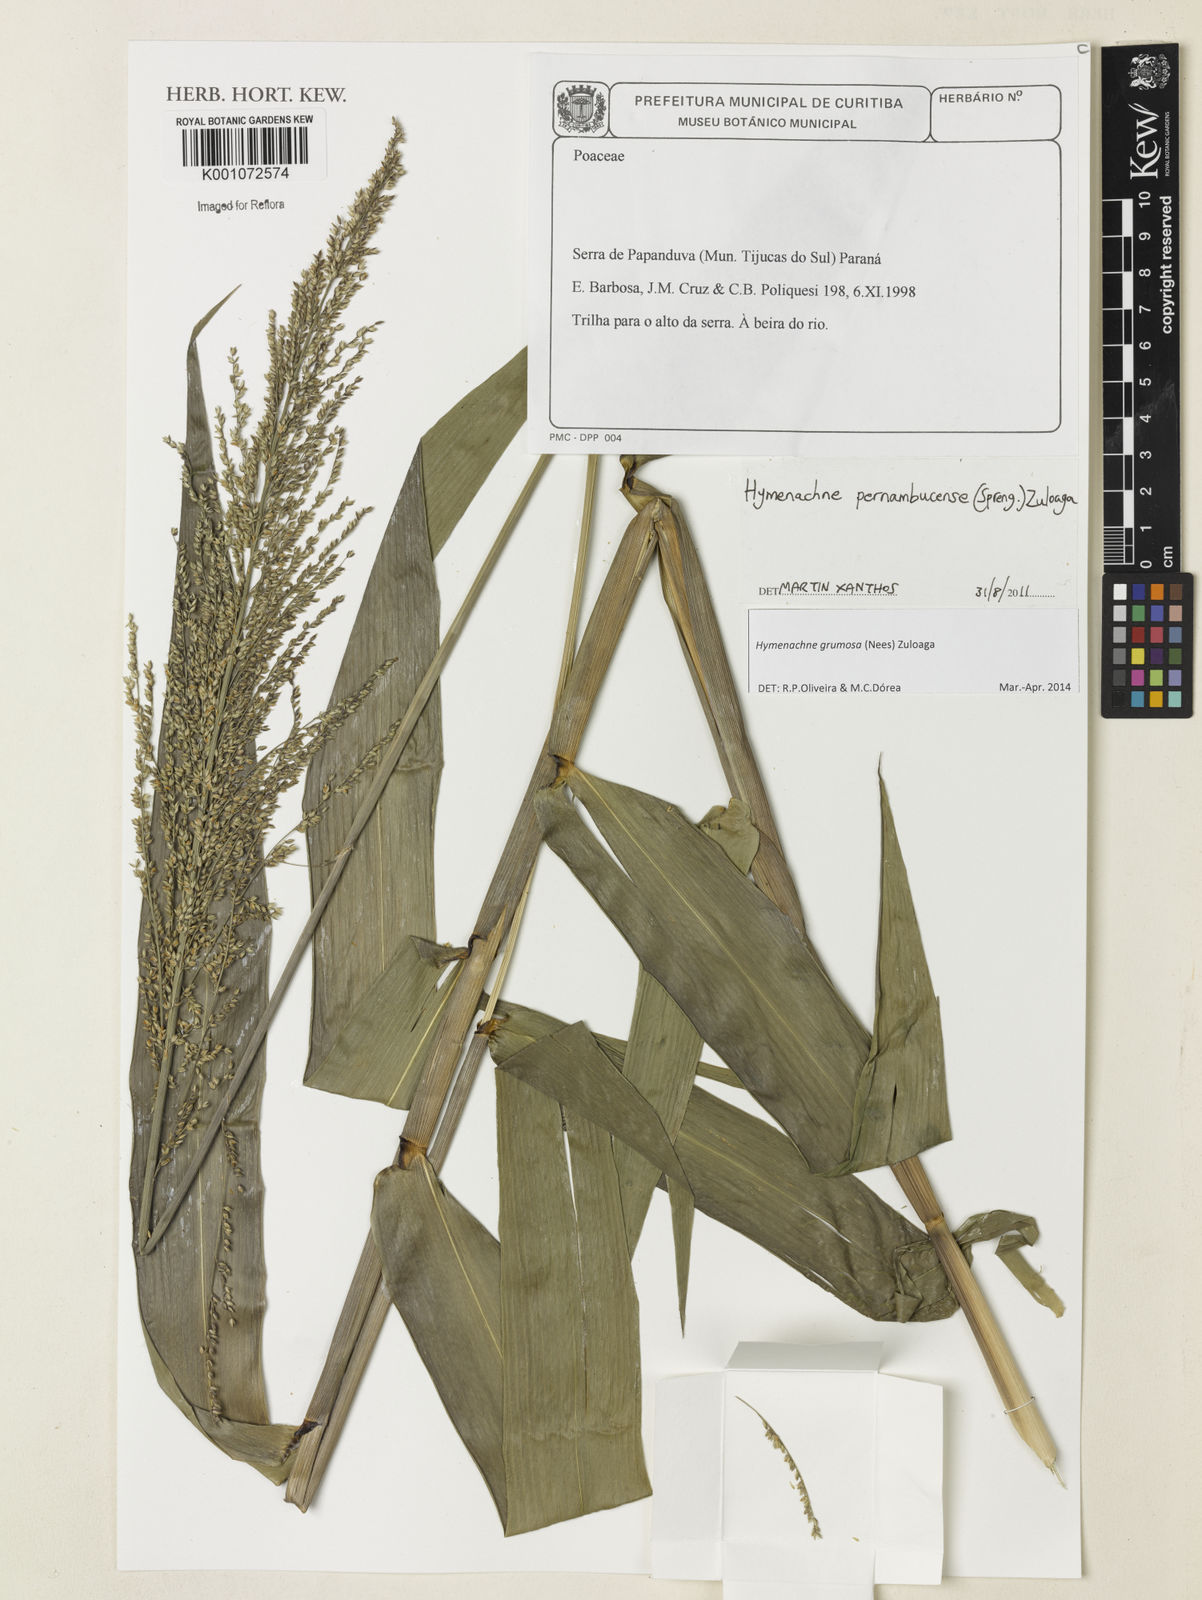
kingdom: Plantae
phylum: Tracheophyta
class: Liliopsida
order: Poales
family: Poaceae
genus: Hymenachne
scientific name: Hymenachne grumosa
